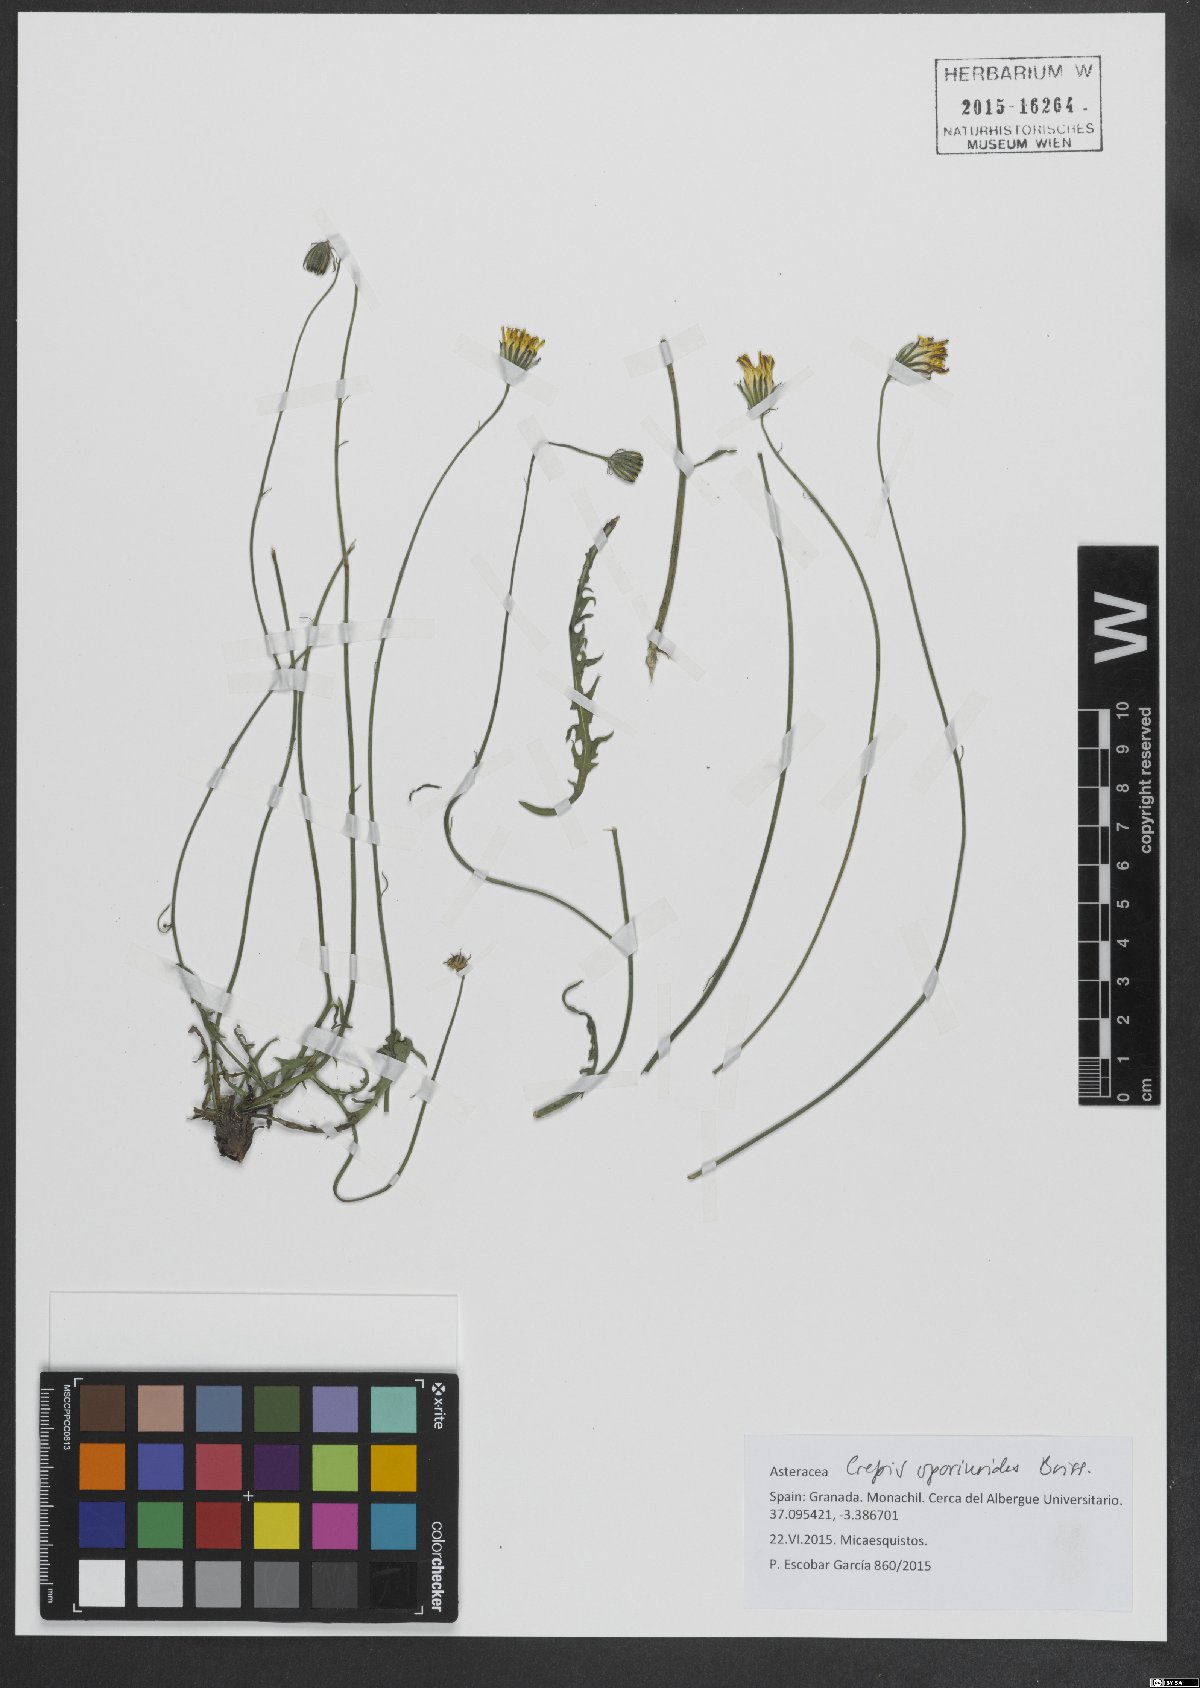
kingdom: Plantae
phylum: Tracheophyta
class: Magnoliopsida
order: Asterales
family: Asteraceae
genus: Crepis
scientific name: Crepis oporinoides
